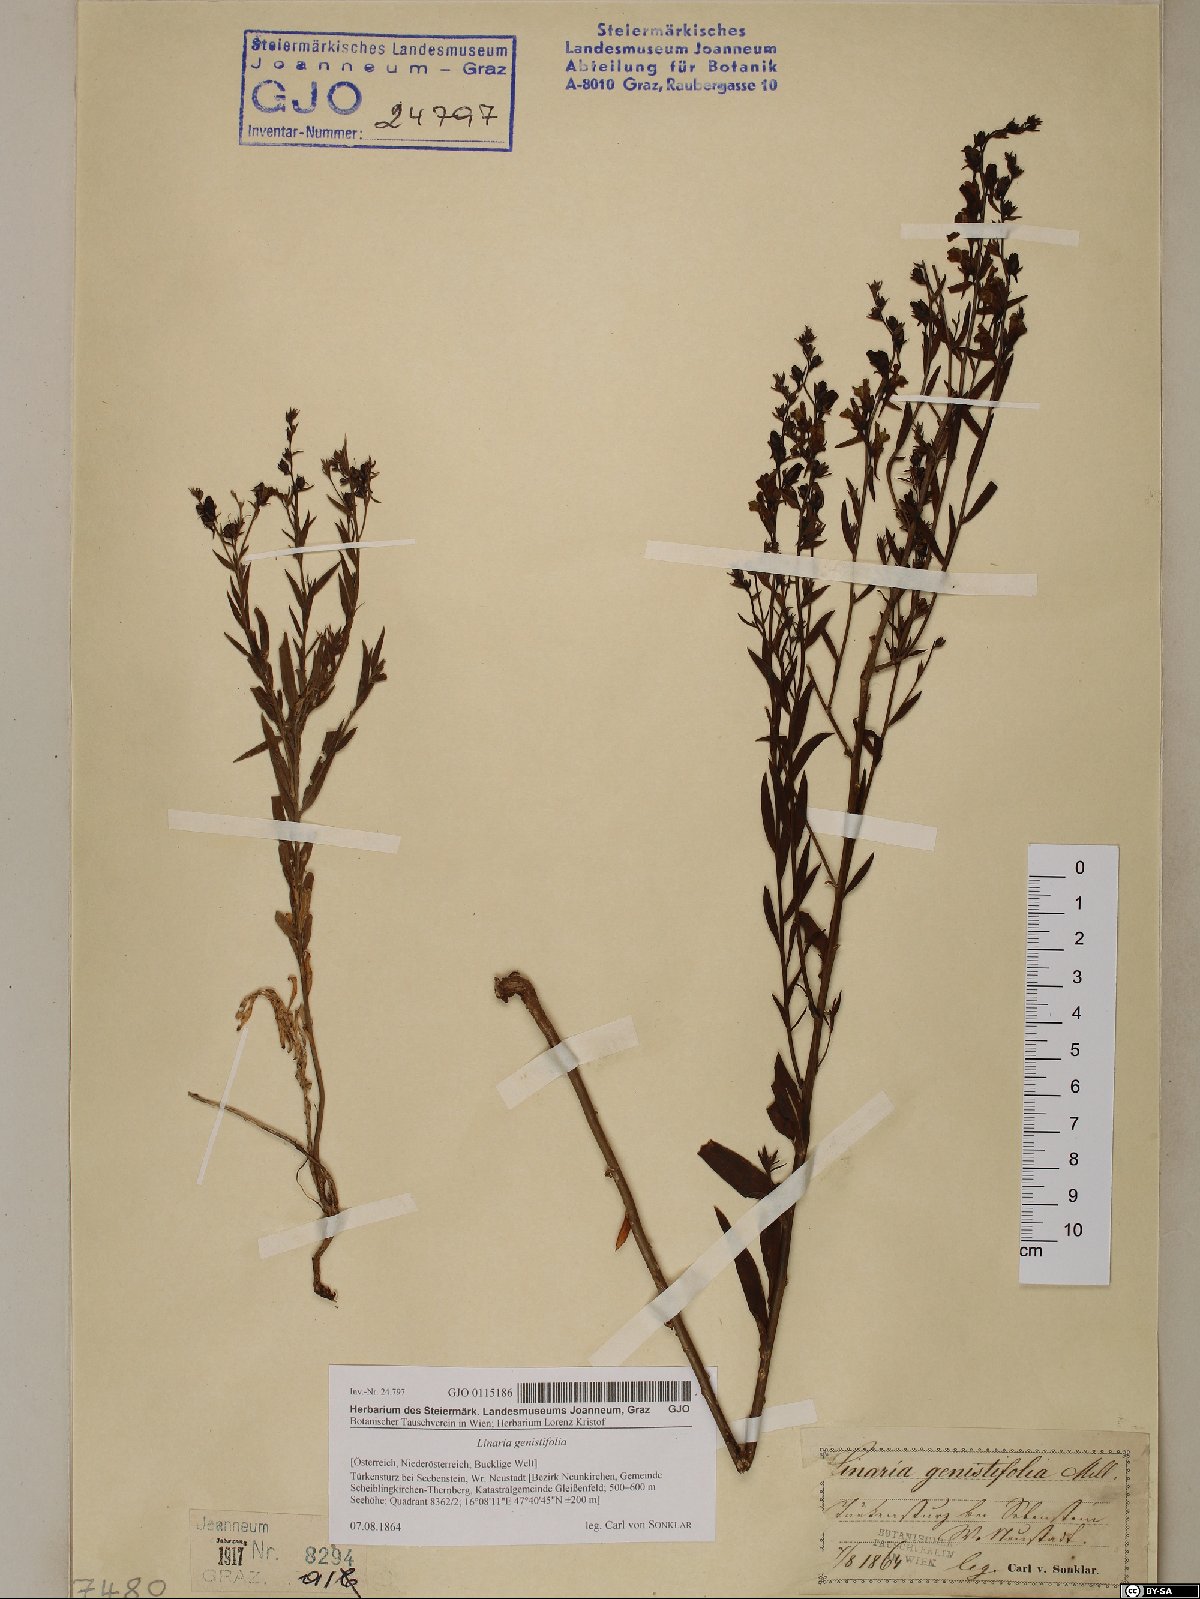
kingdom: Plantae
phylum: Tracheophyta
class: Magnoliopsida
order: Lamiales
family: Plantaginaceae
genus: Linaria
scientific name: Linaria genistifolia
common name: Broomleaf toadflax
